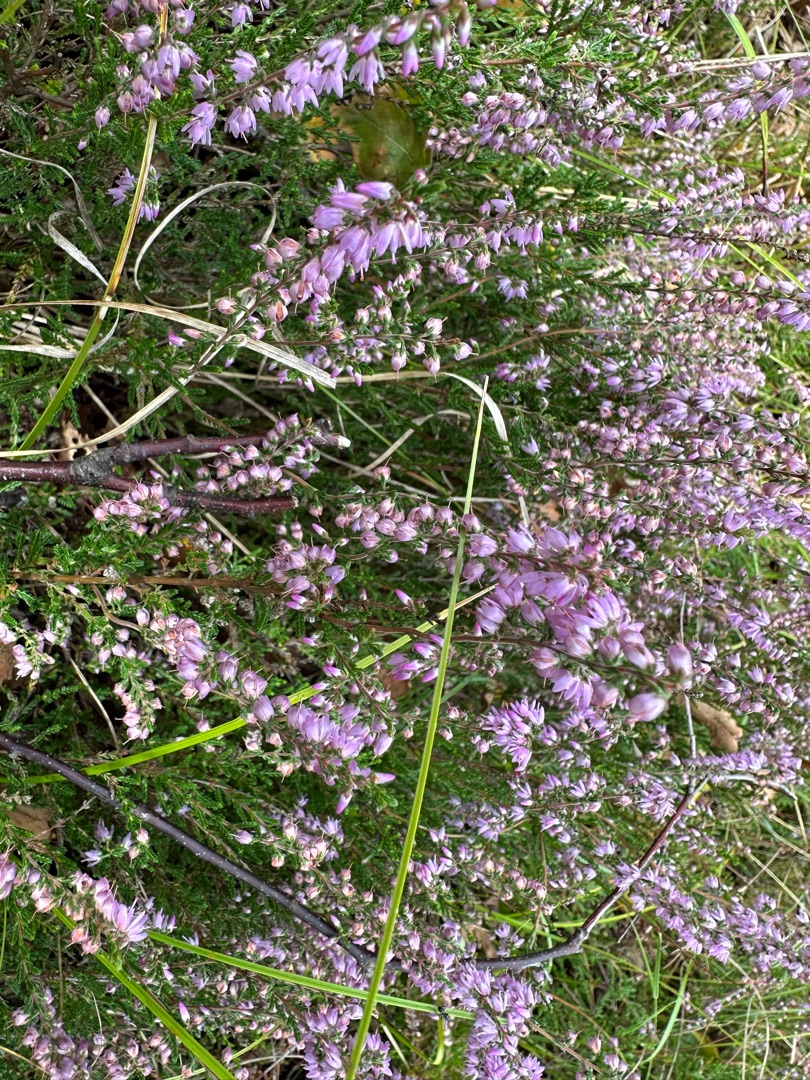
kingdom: Plantae
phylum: Tracheophyta
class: Magnoliopsida
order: Ericales
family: Ericaceae
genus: Calluna
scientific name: Calluna vulgaris
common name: Hedelyng
